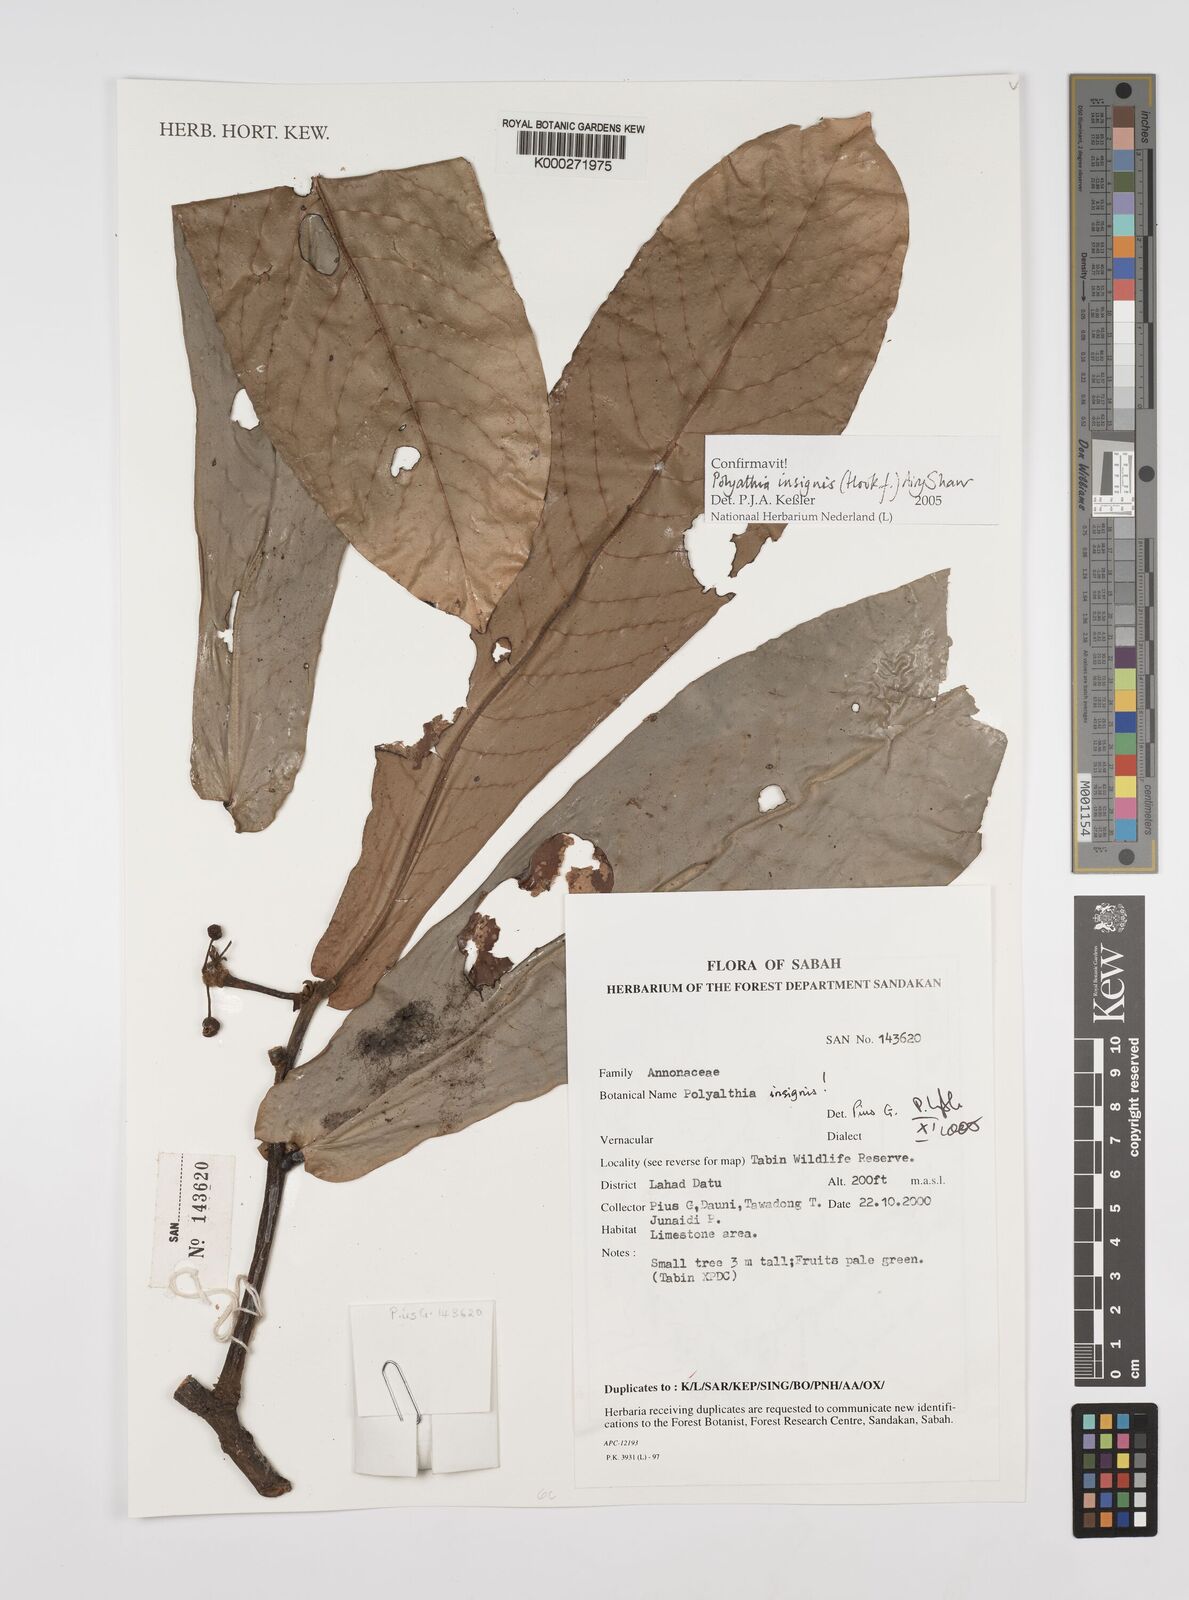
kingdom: Plantae
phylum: Tracheophyta
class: Magnoliopsida
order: Magnoliales
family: Annonaceae
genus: Polyalthia
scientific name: Polyalthia insignis
